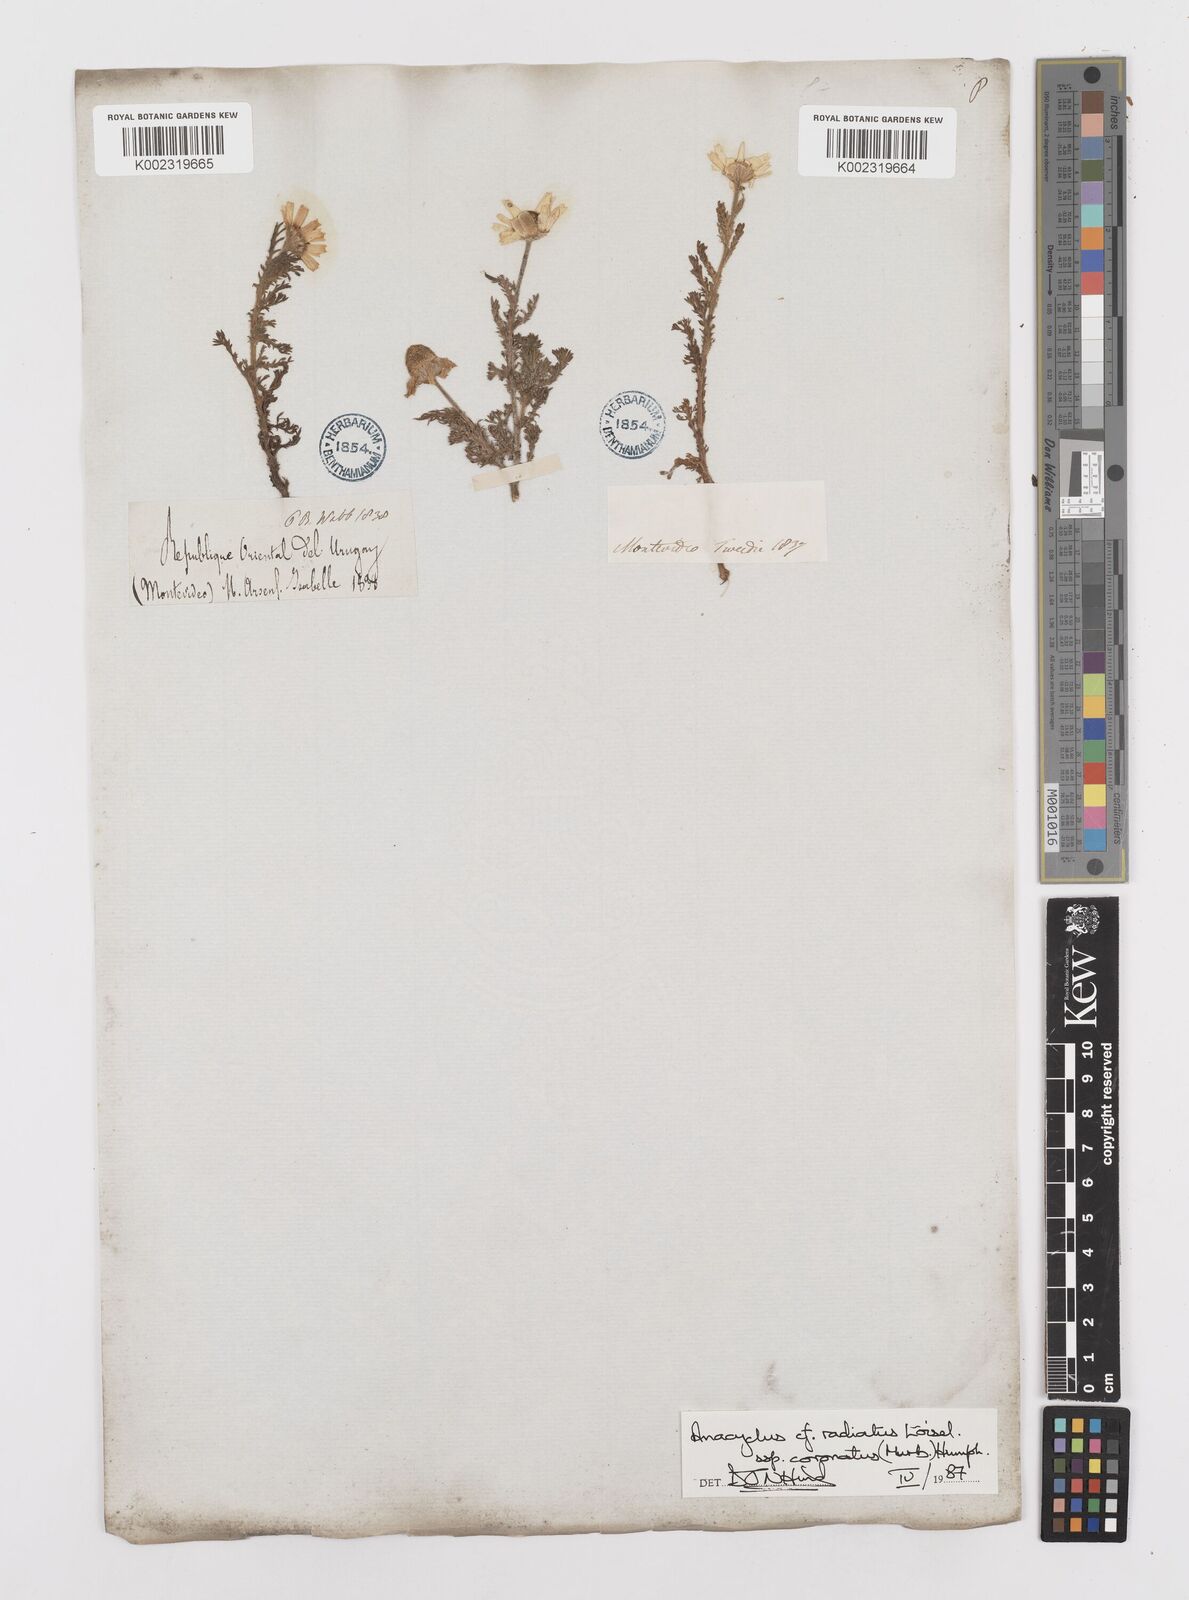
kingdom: Plantae
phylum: Tracheophyta
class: Magnoliopsida
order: Asterales
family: Asteraceae
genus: Anacyclus
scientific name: Anacyclus radiatus
